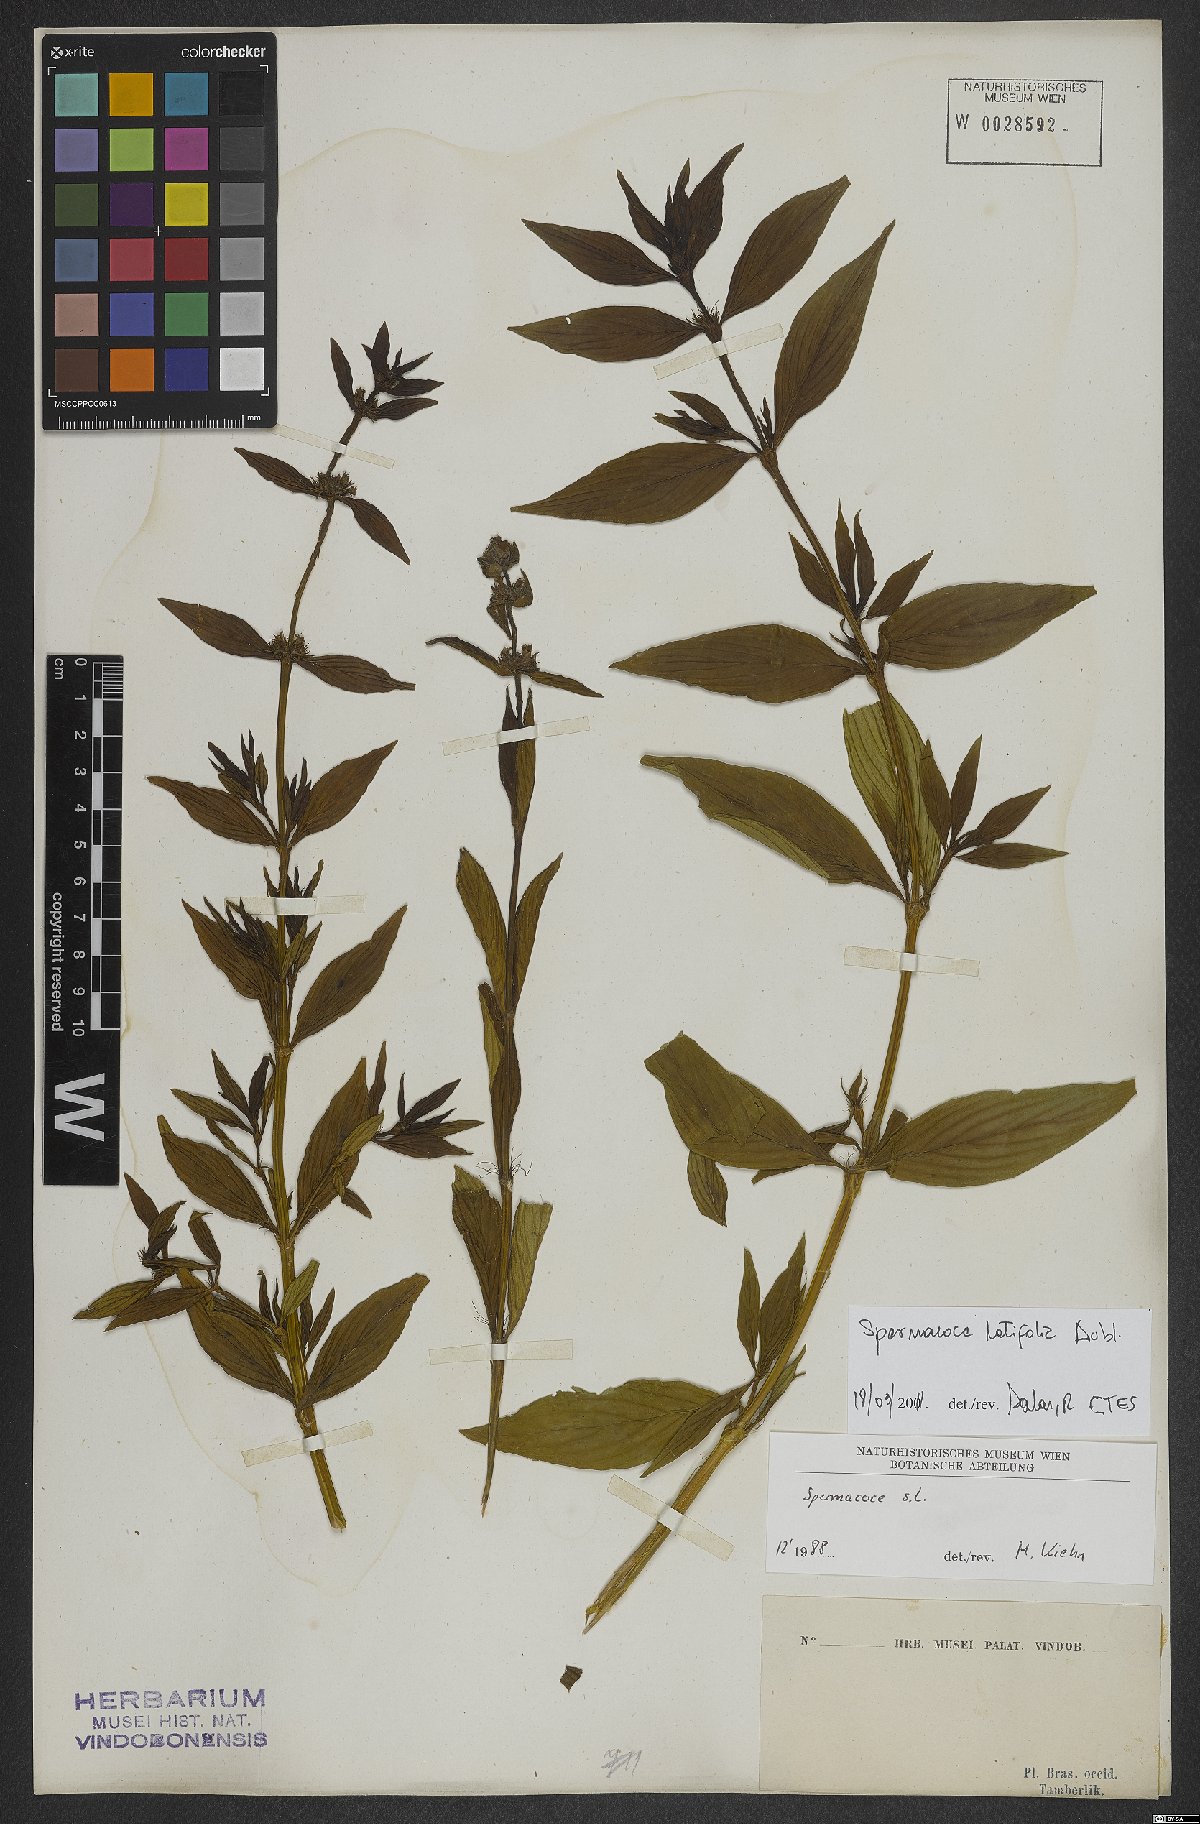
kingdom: Plantae
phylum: Tracheophyta
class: Magnoliopsida
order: Gentianales
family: Rubiaceae
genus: Spermacoce
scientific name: Spermacoce latifolia
